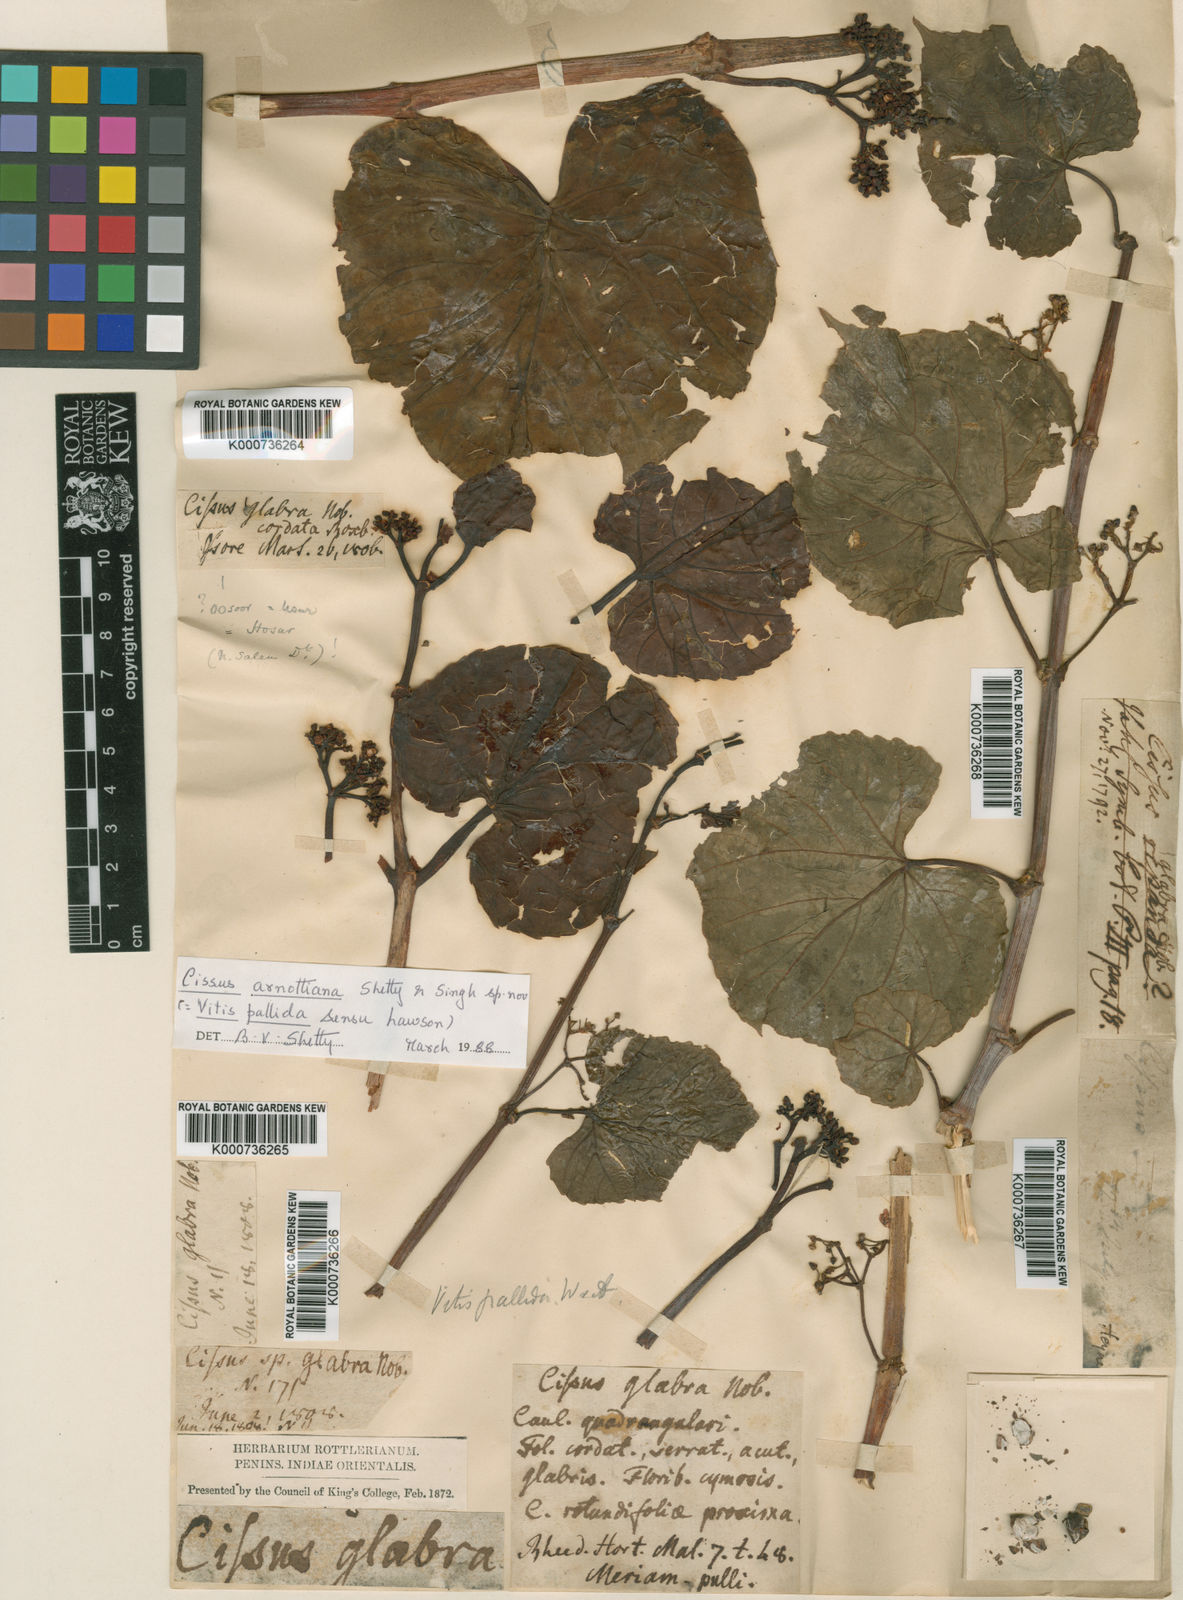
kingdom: Plantae
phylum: Tracheophyta
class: Magnoliopsida
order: Vitales
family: Vitaceae
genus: Cissus
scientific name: Cissus
